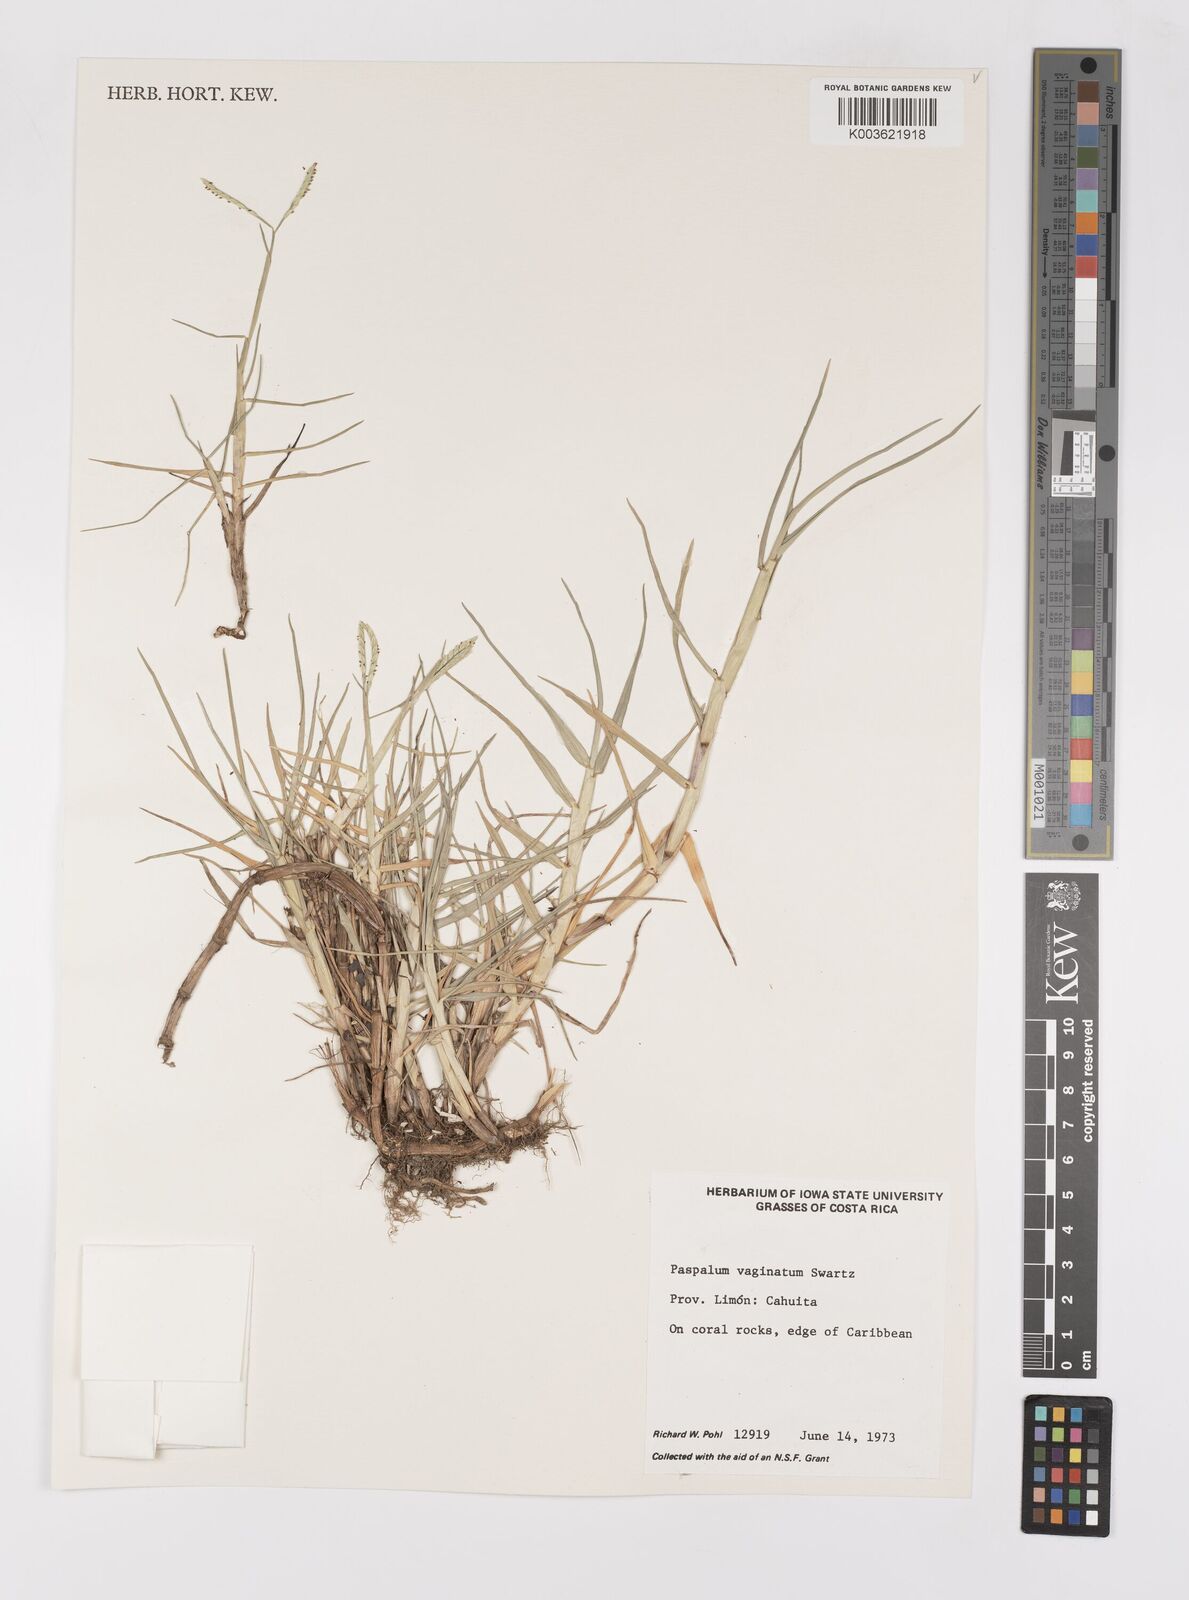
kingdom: Plantae
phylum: Tracheophyta
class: Liliopsida
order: Poales
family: Poaceae
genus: Paspalum
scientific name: Paspalum vaginatum
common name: Seashore paspalum
